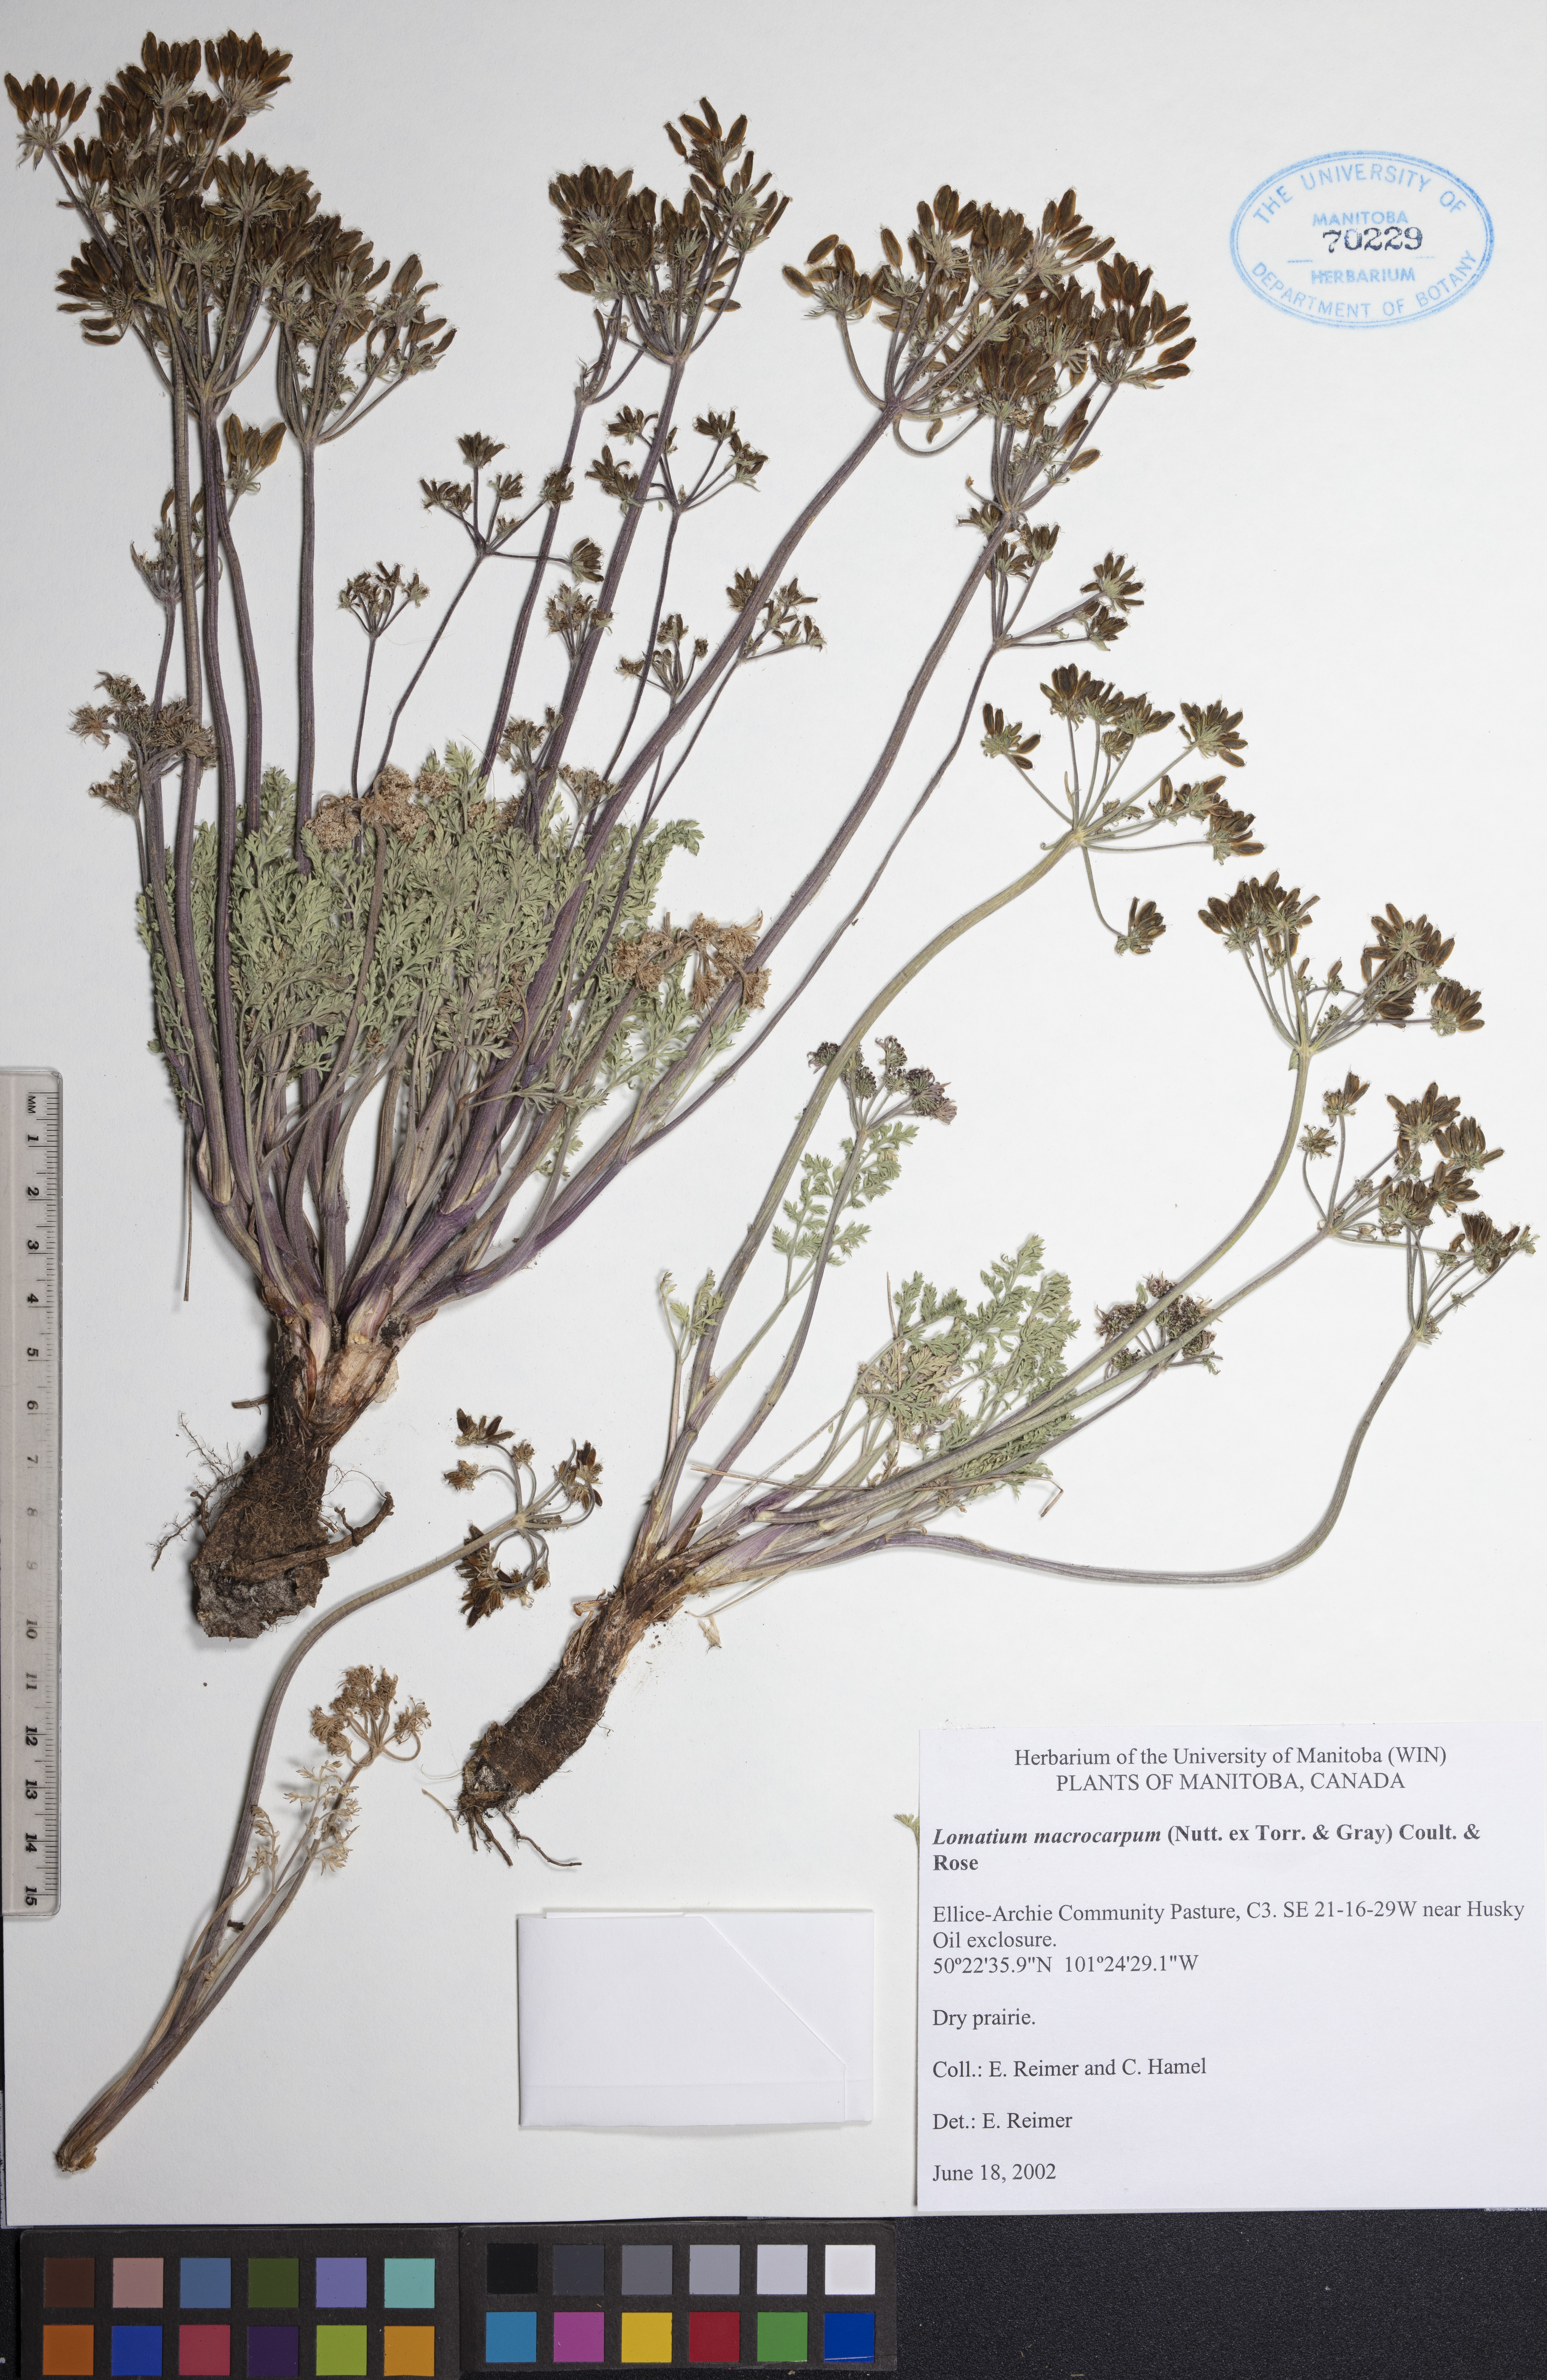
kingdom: Plantae
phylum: Tracheophyta
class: Magnoliopsida
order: Apiales
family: Apiaceae
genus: Lomatium
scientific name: Lomatium macrocarpum
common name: Big-seed biscuitroot
